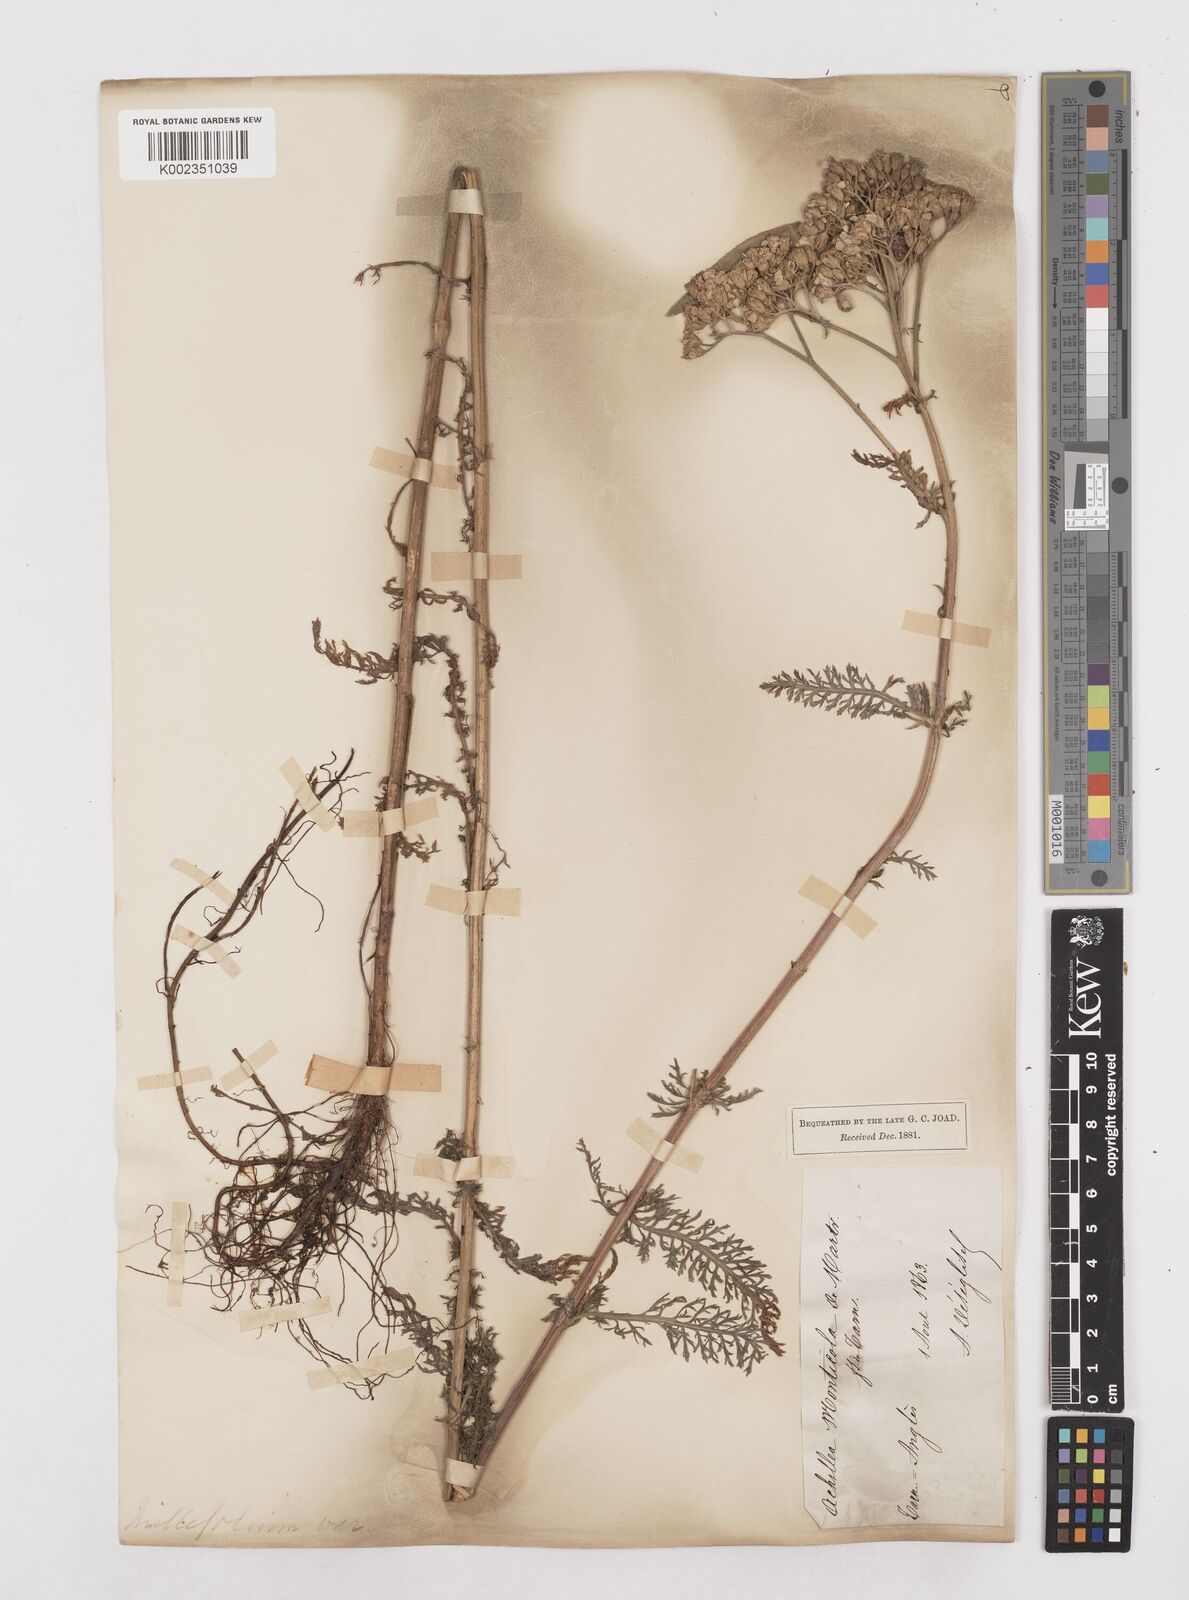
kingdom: Plantae
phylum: Tracheophyta
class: Magnoliopsida
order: Asterales
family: Asteraceae
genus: Achillea
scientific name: Achillea millefolium
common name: Yarrow
